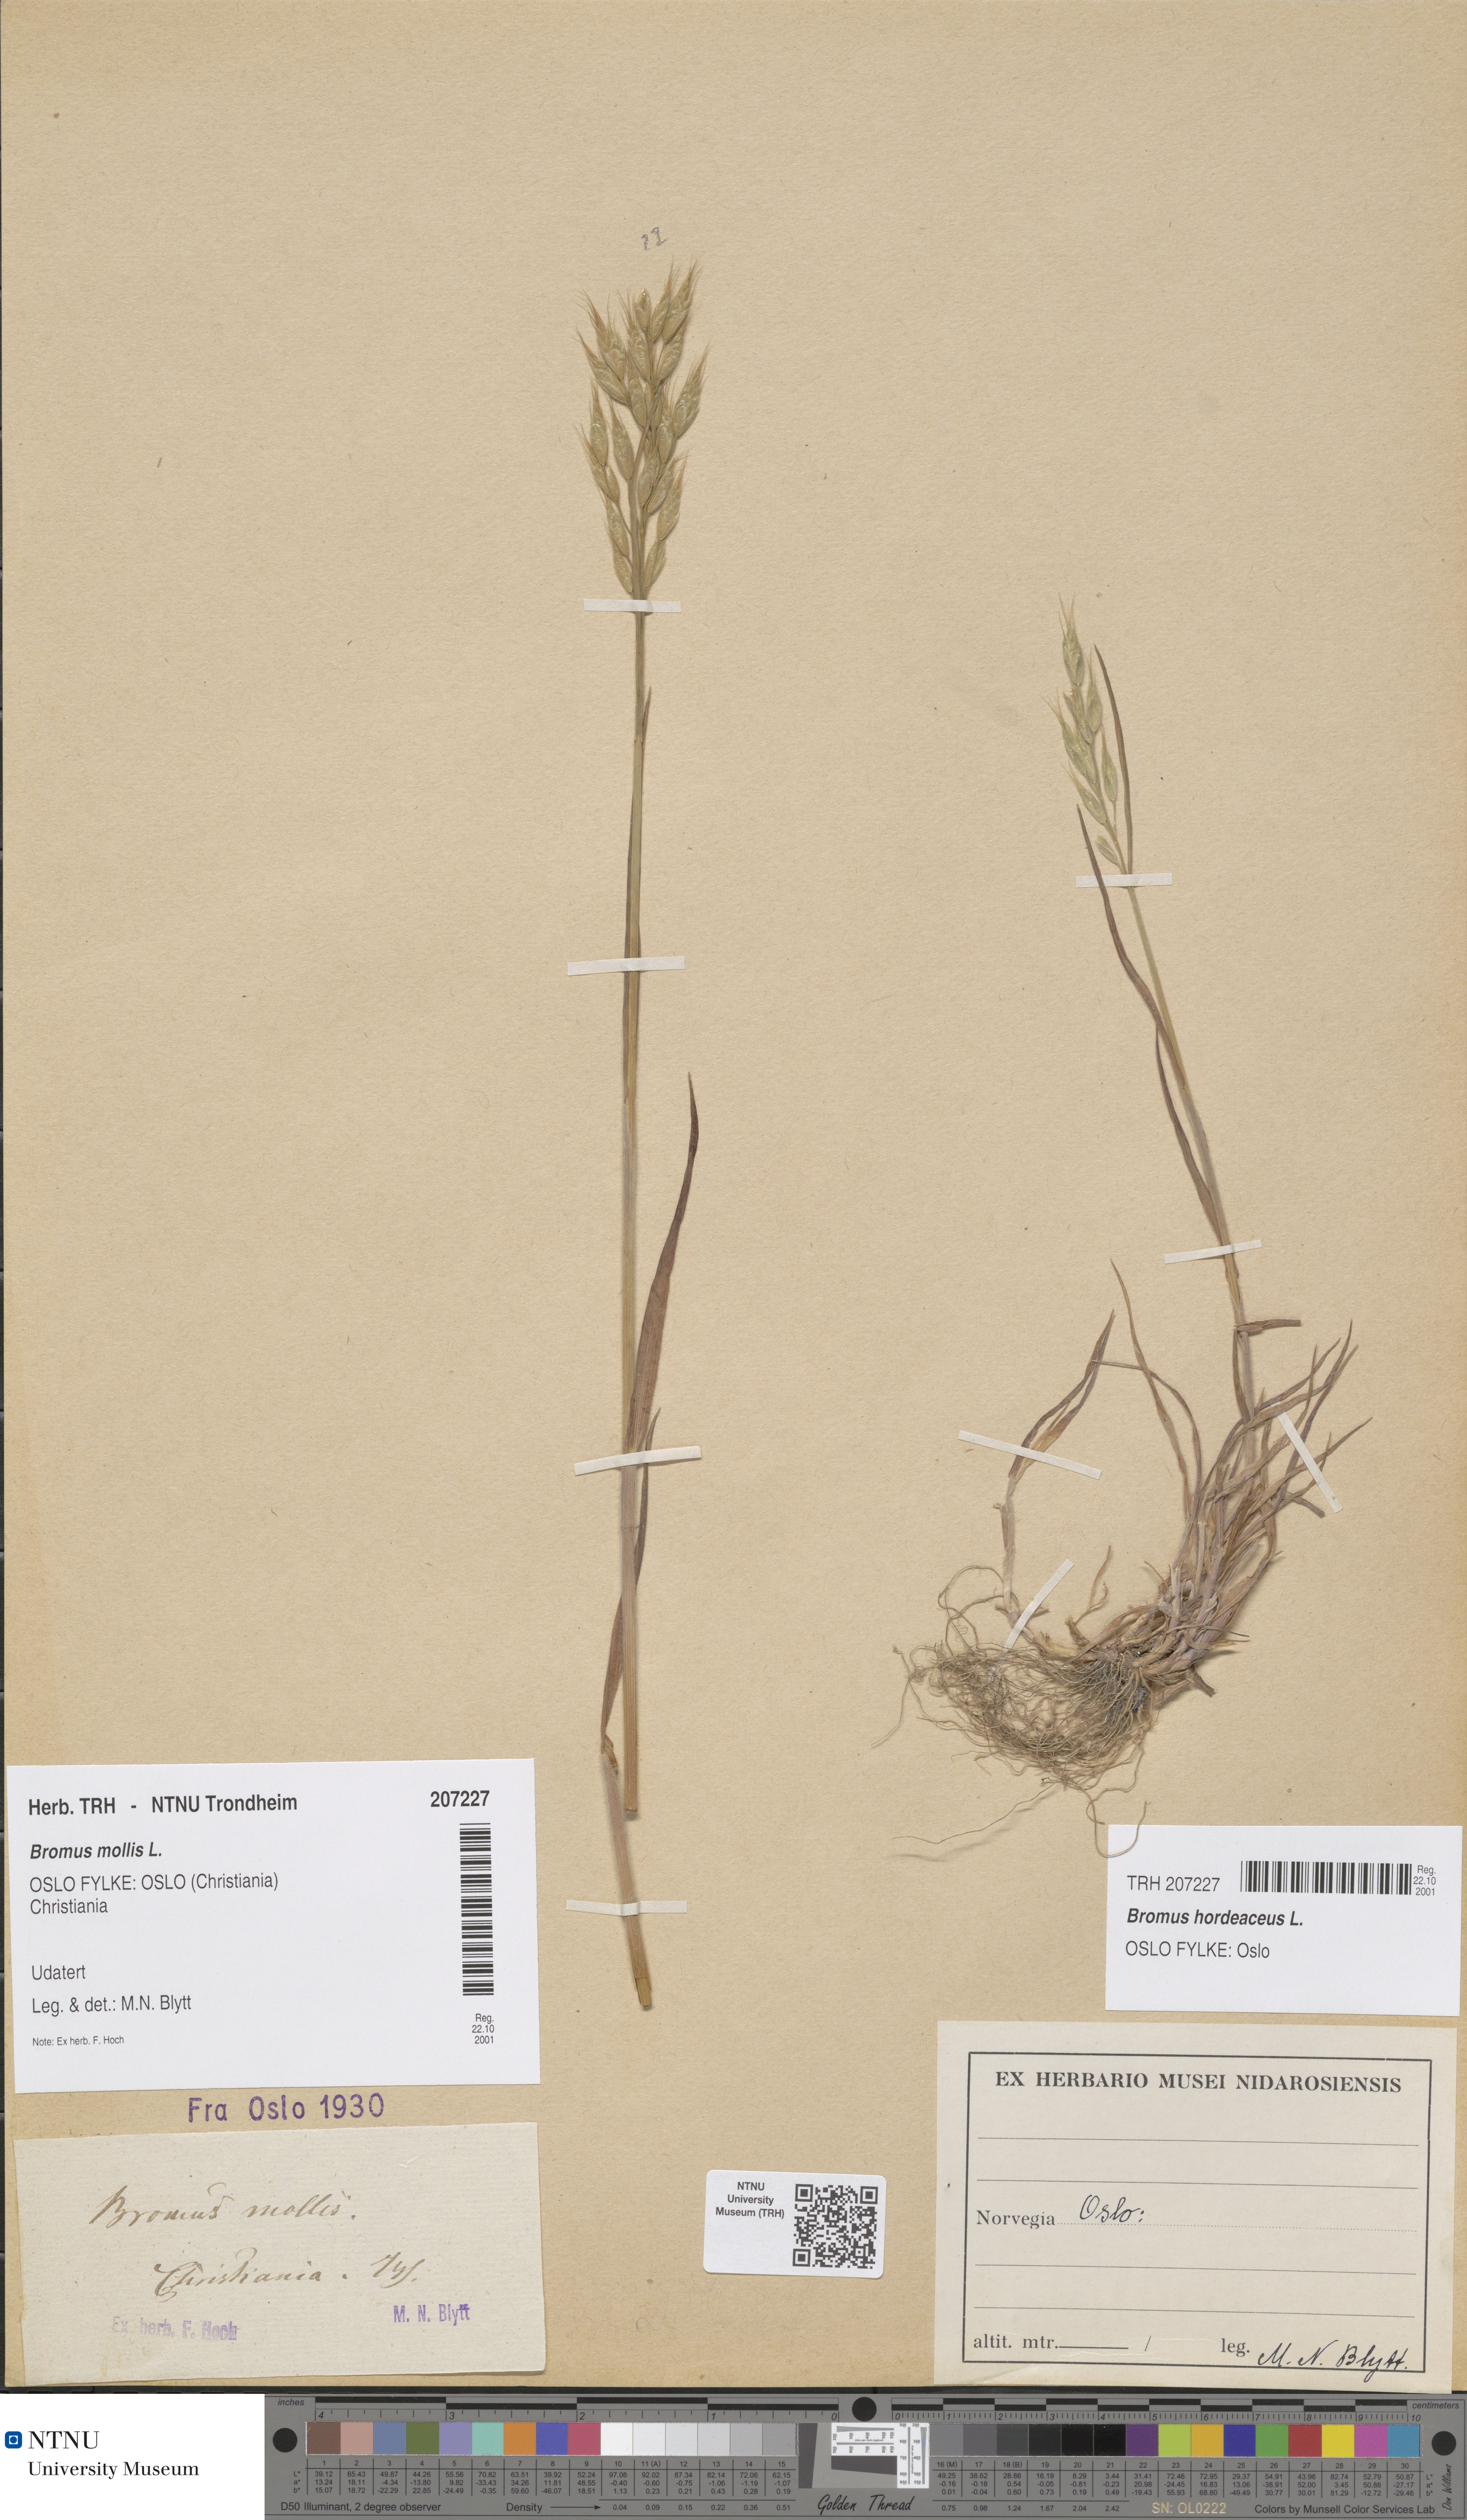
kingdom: Plantae
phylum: Tracheophyta
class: Liliopsida
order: Poales
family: Poaceae
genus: Bromus
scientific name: Bromus hordeaceus
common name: Soft brome
